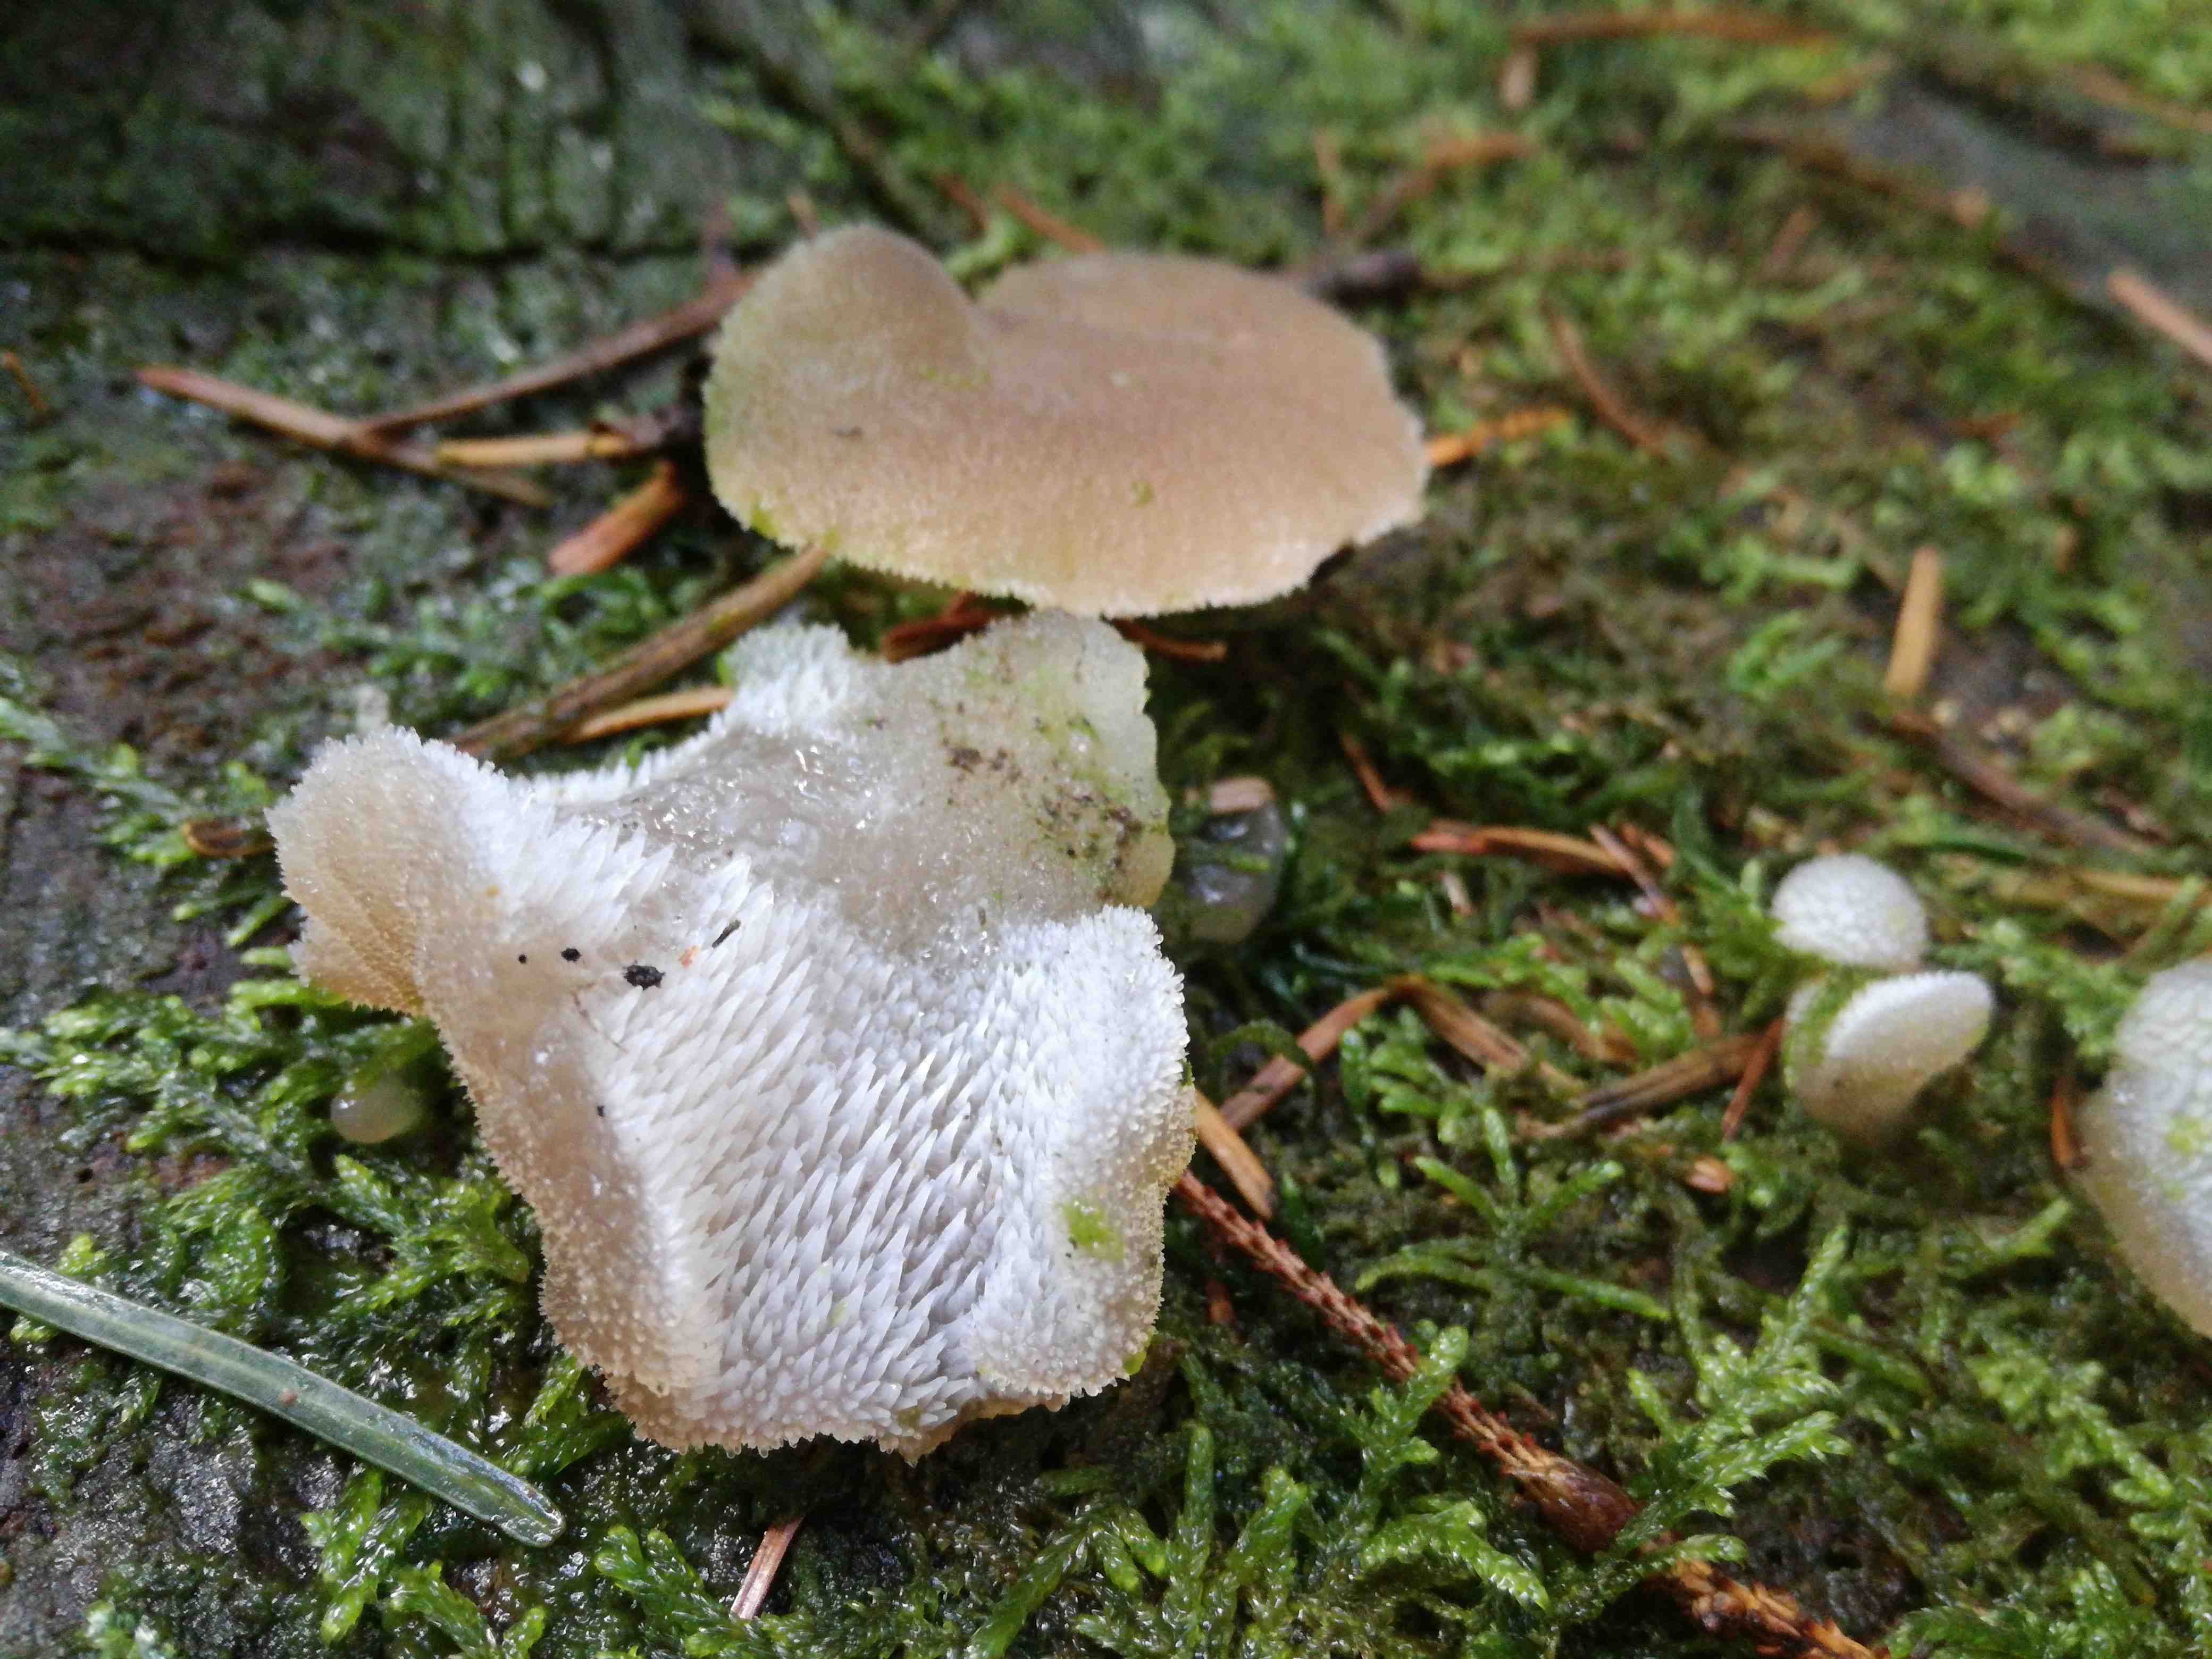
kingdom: Fungi
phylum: Basidiomycota
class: Agaricomycetes
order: Auriculariales
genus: Pseudohydnum
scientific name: Pseudohydnum gelatinosum
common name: bævretand
